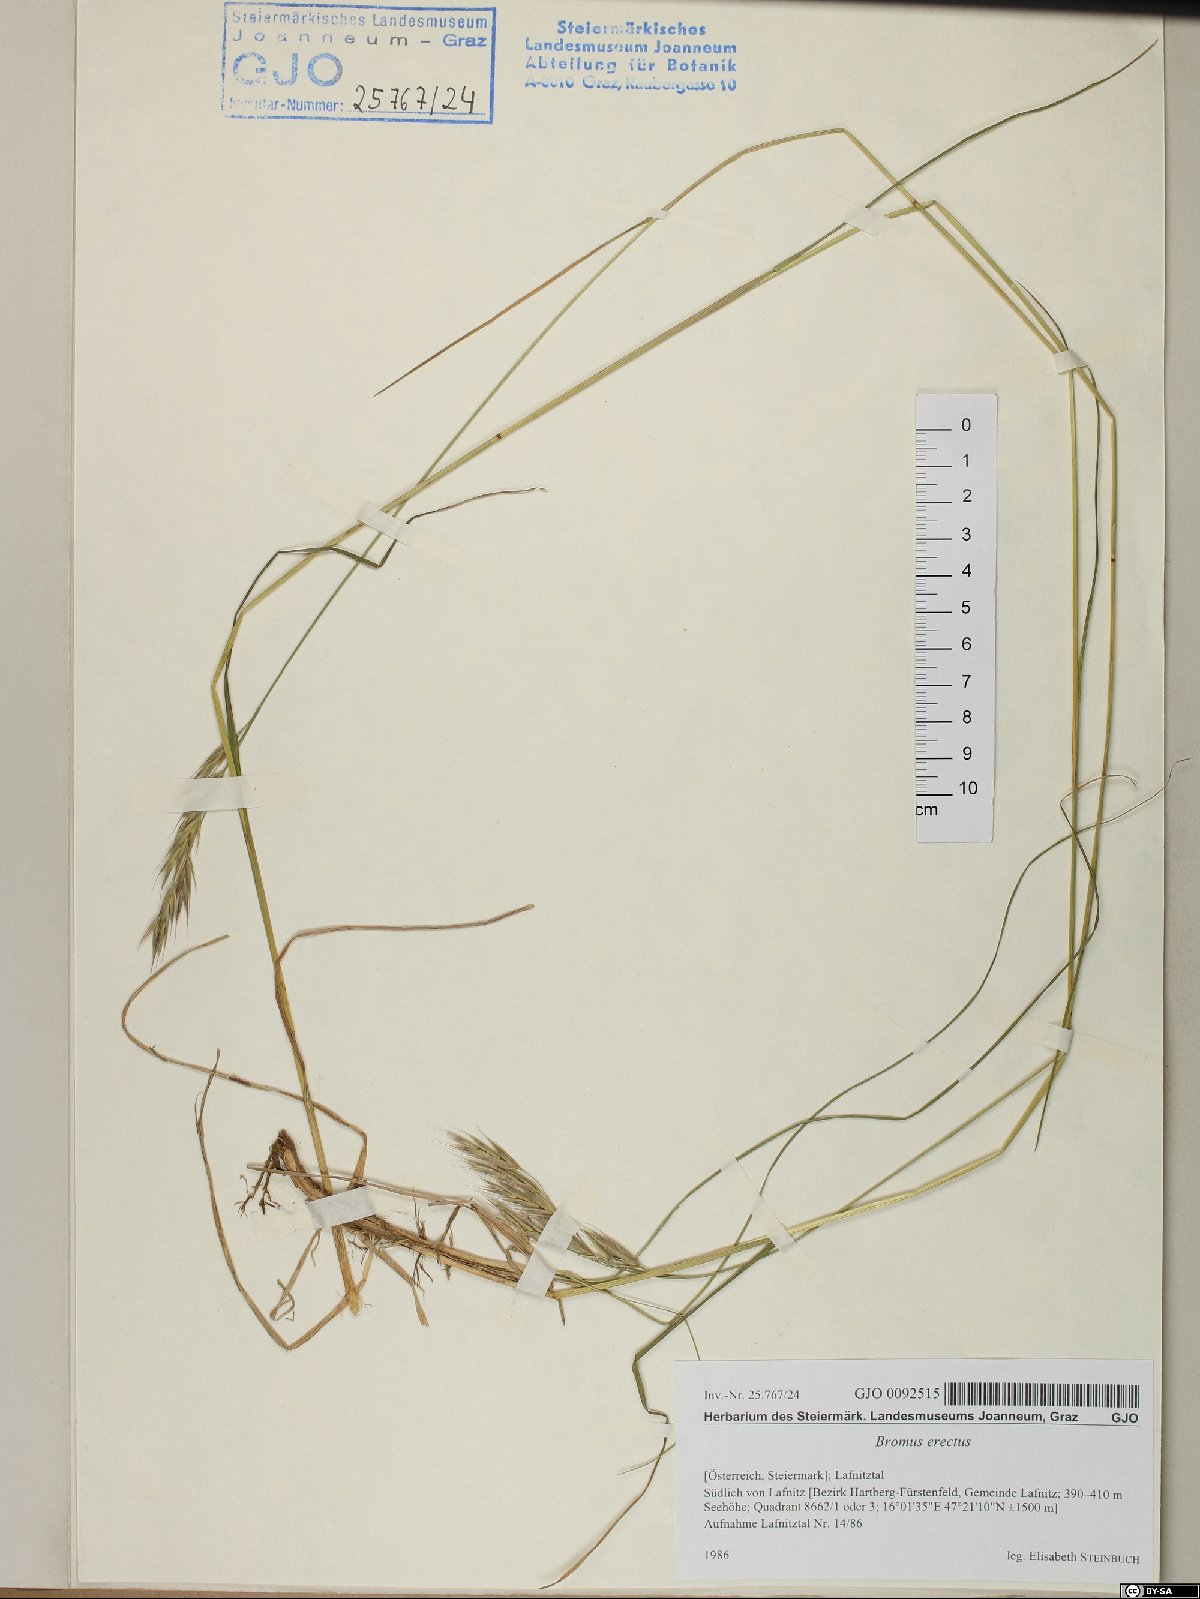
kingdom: Plantae
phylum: Tracheophyta
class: Liliopsida
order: Poales
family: Poaceae
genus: Bromus
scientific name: Bromus erectus
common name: Erect brome
